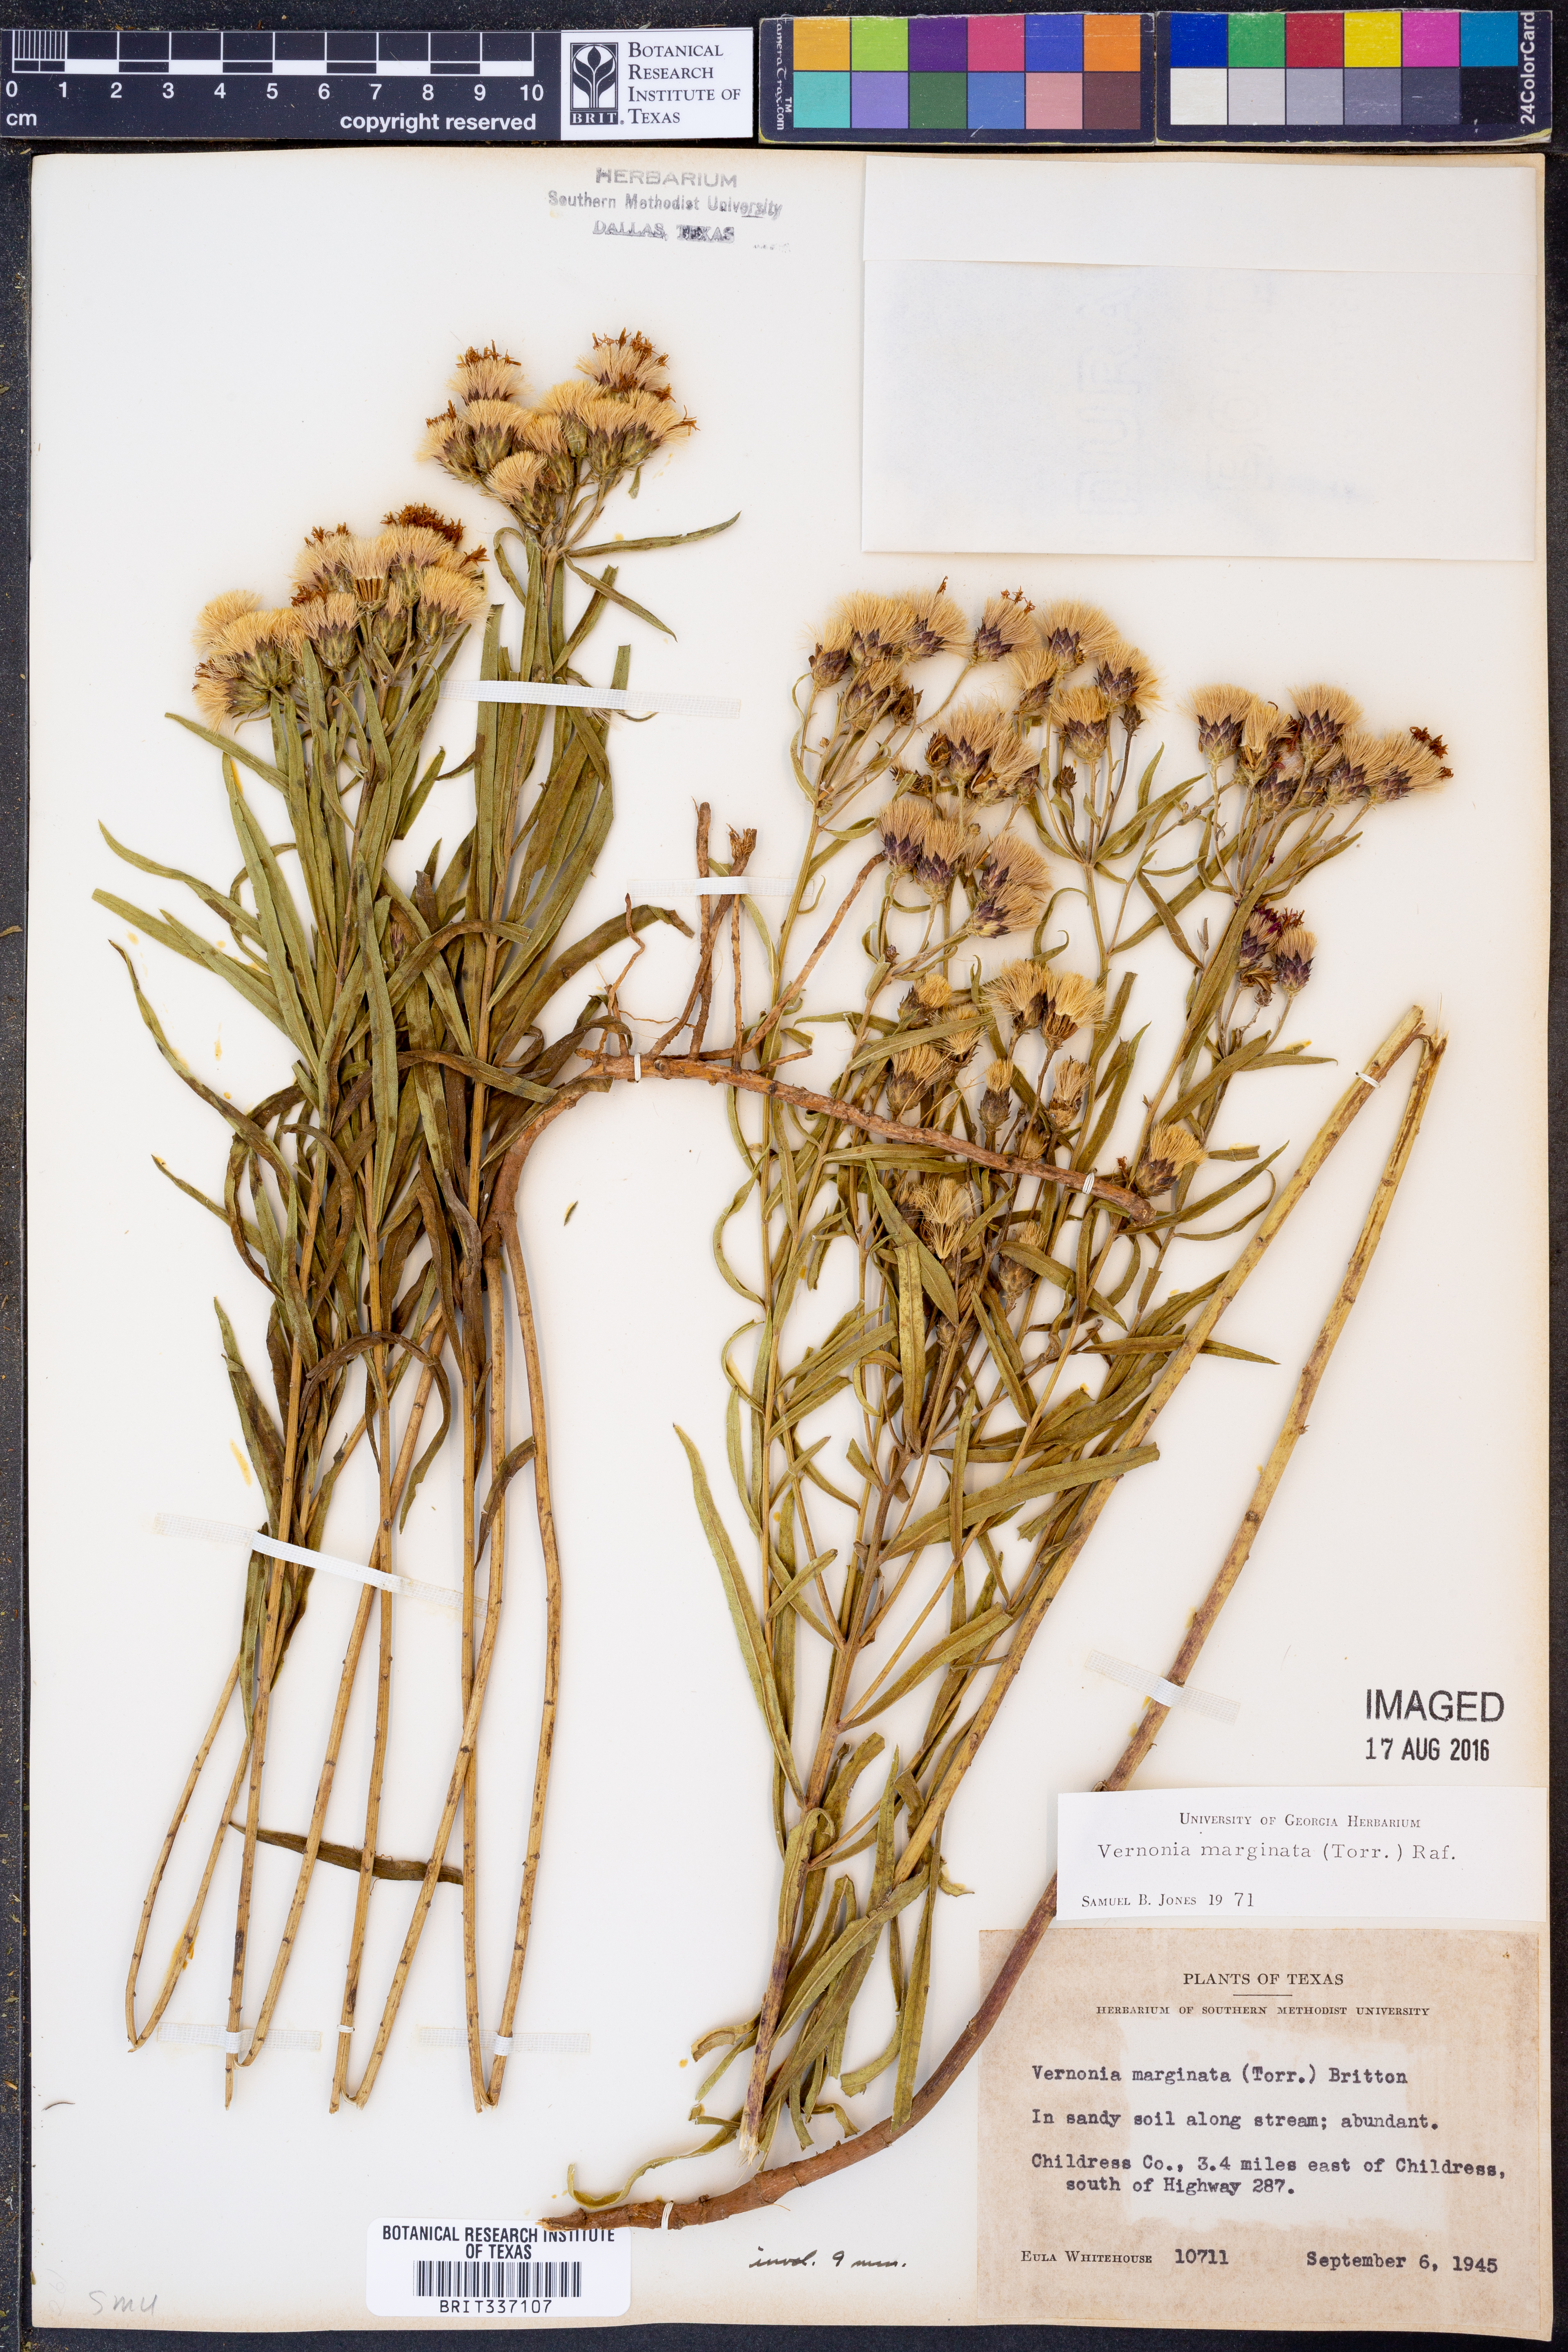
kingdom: Plantae
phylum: Tracheophyta
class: Magnoliopsida
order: Asterales
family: Asteraceae
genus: Vernonia
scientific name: Vernonia marginata
